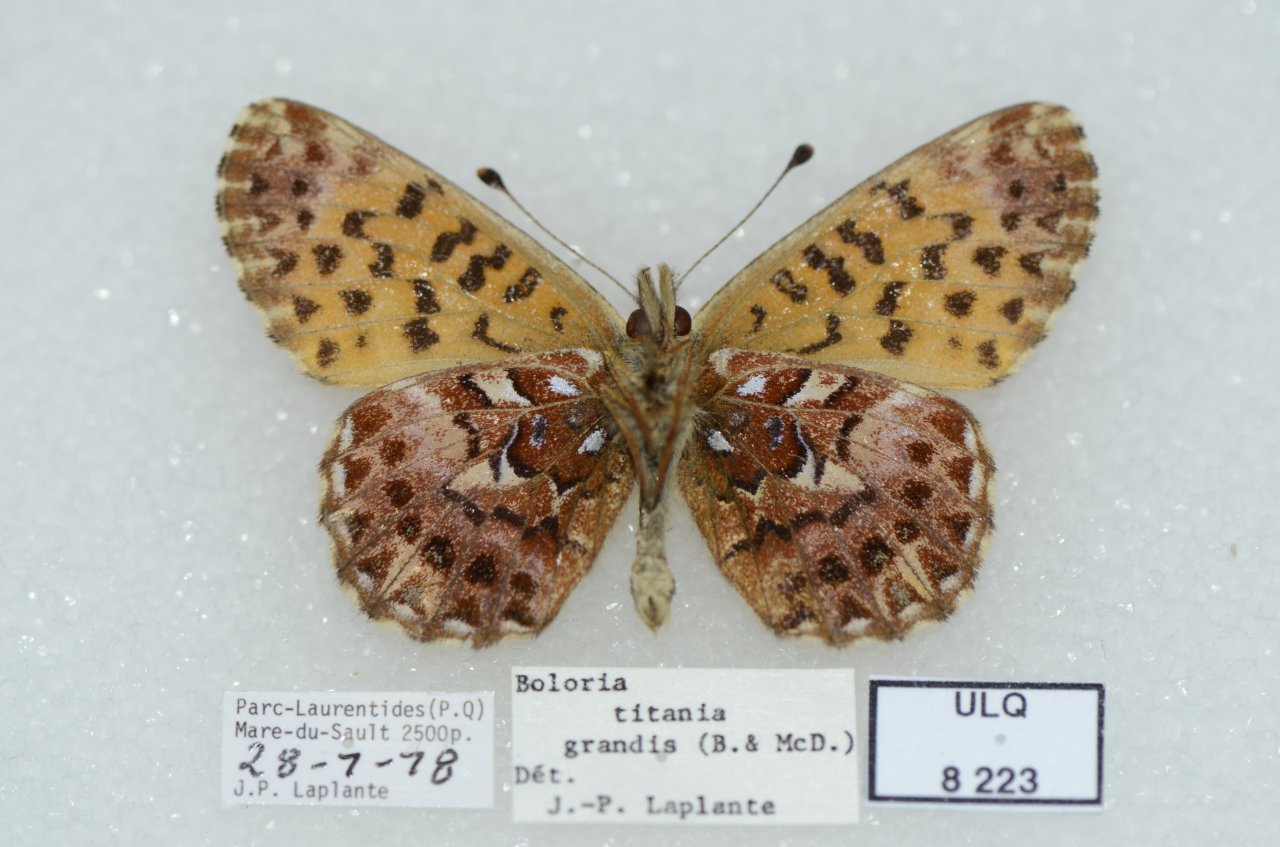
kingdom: Animalia
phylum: Arthropoda
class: Insecta
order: Lepidoptera
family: Nymphalidae
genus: Boloria
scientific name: Boloria chariclea
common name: Arctic Fritillary
